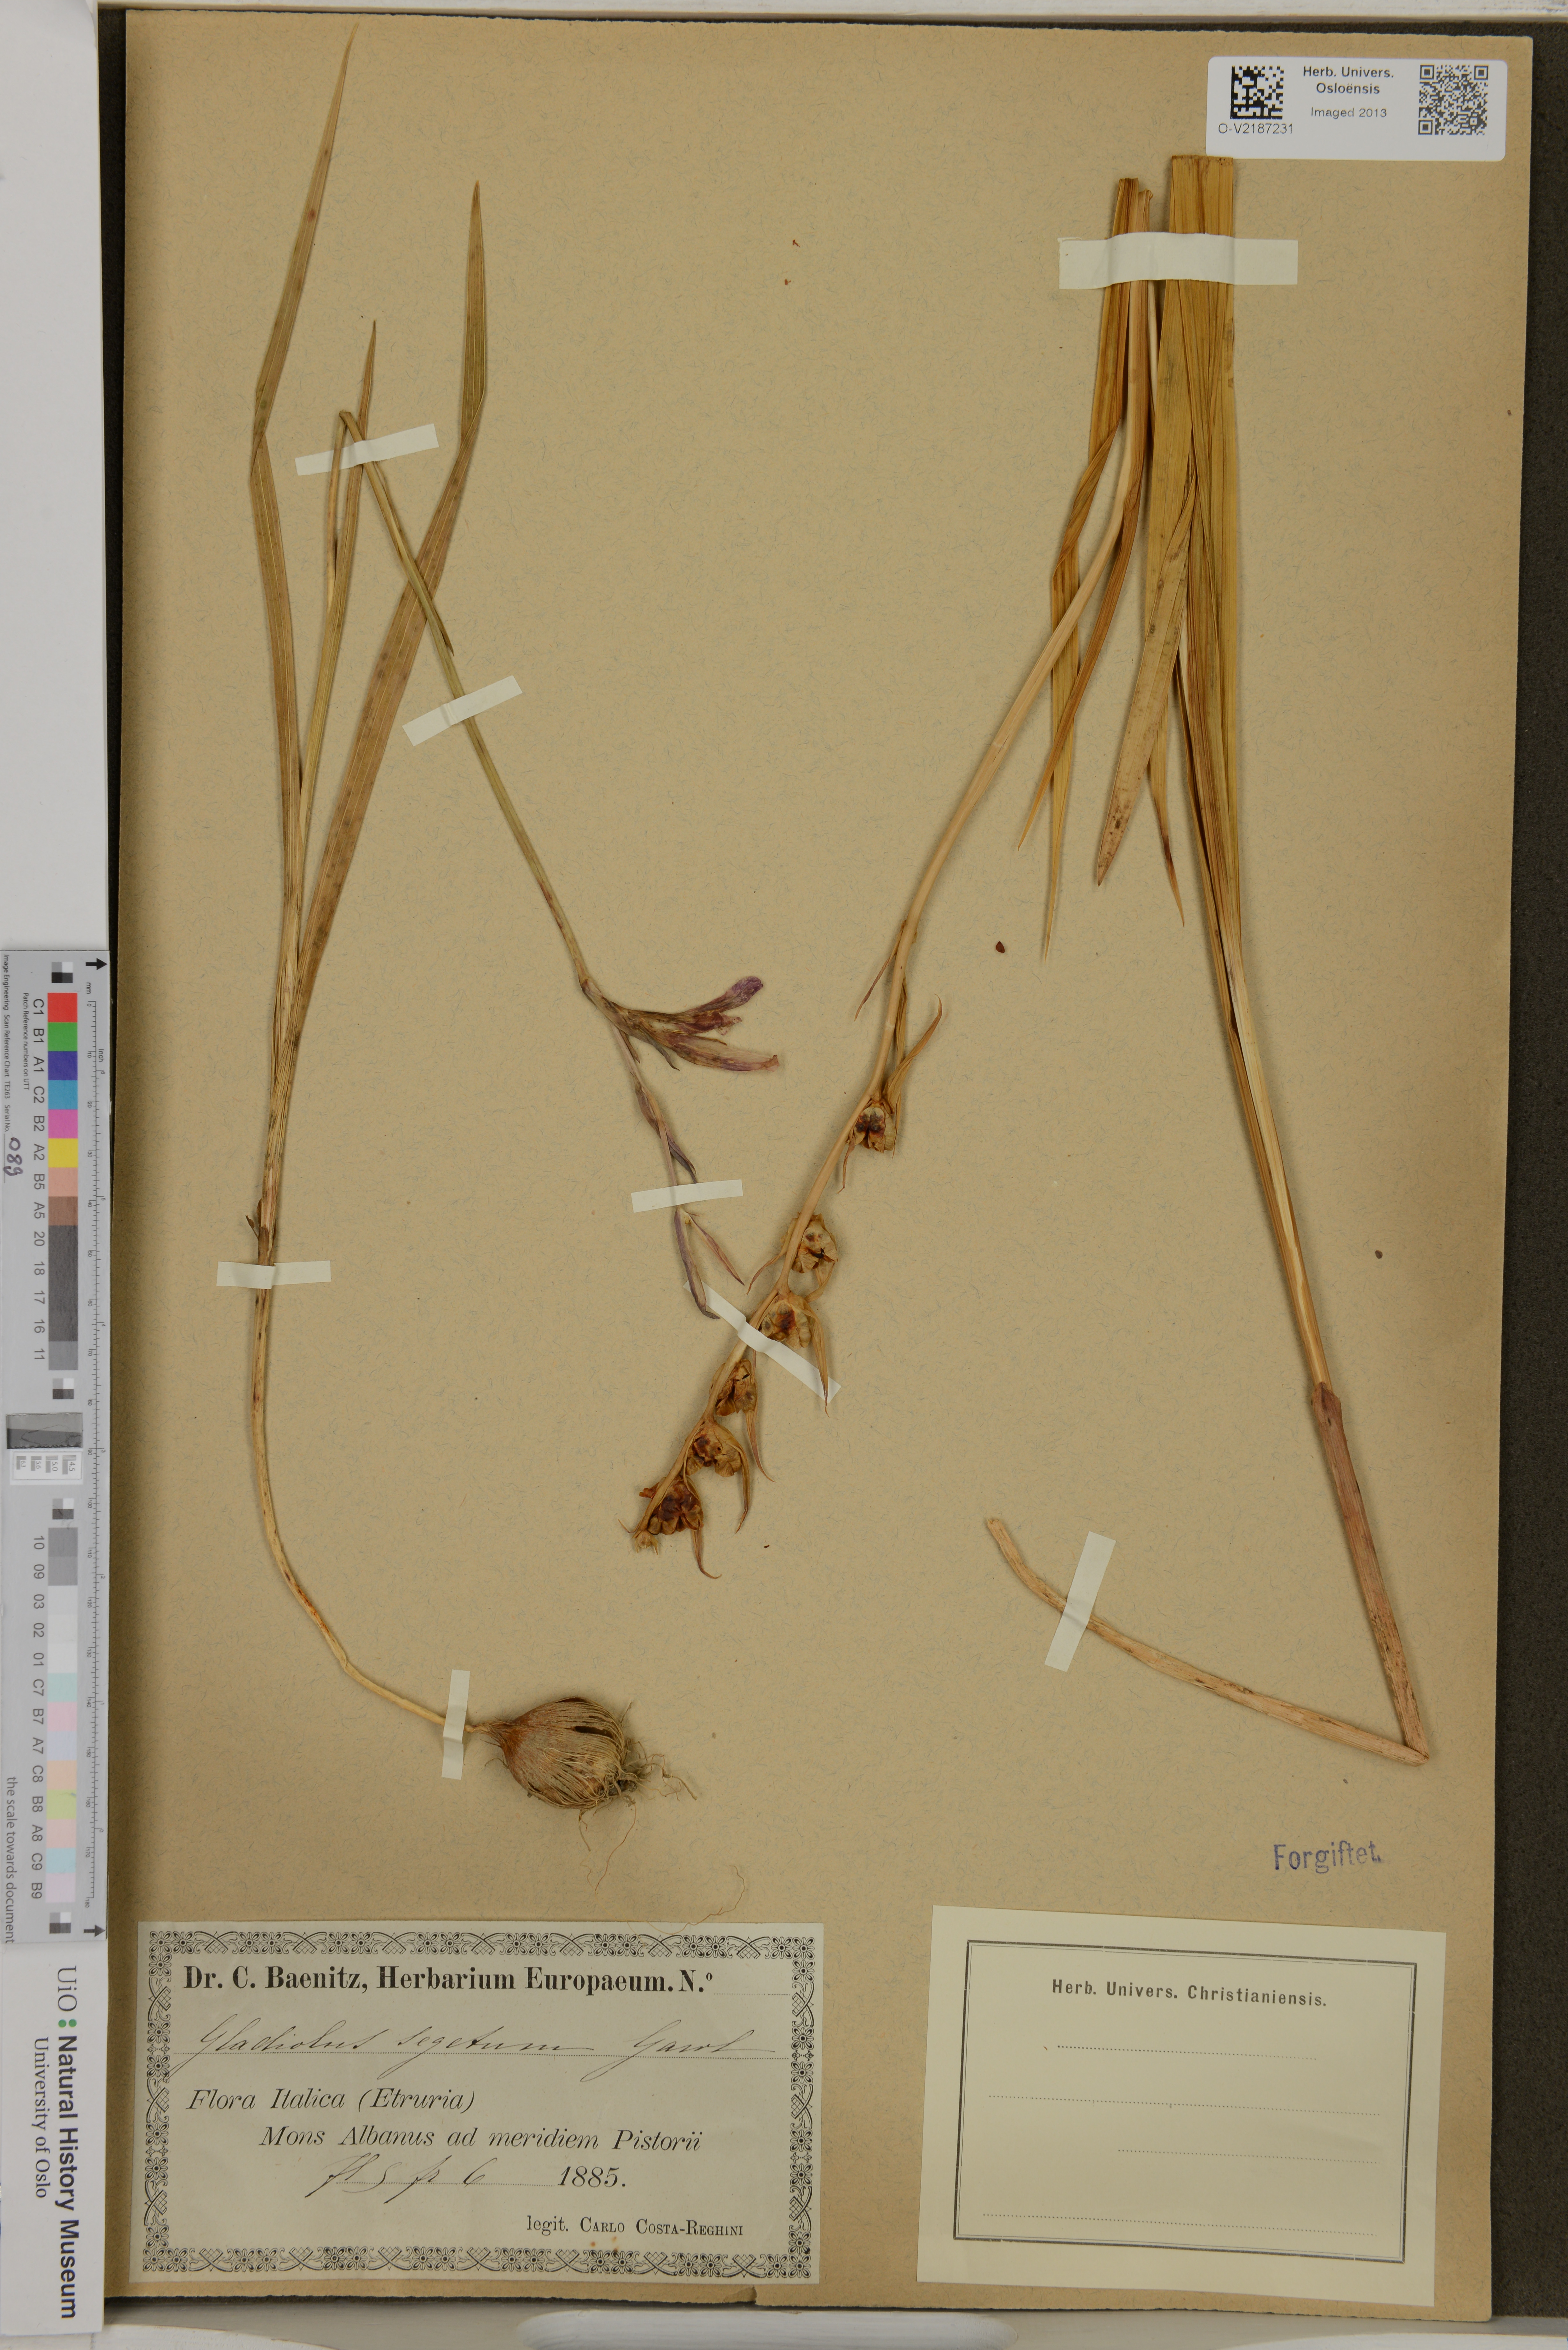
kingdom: Plantae
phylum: Tracheophyta
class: Liliopsida
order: Asparagales
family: Iridaceae
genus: Gladiolus
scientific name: Gladiolus italicus
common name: Field gladiolus
